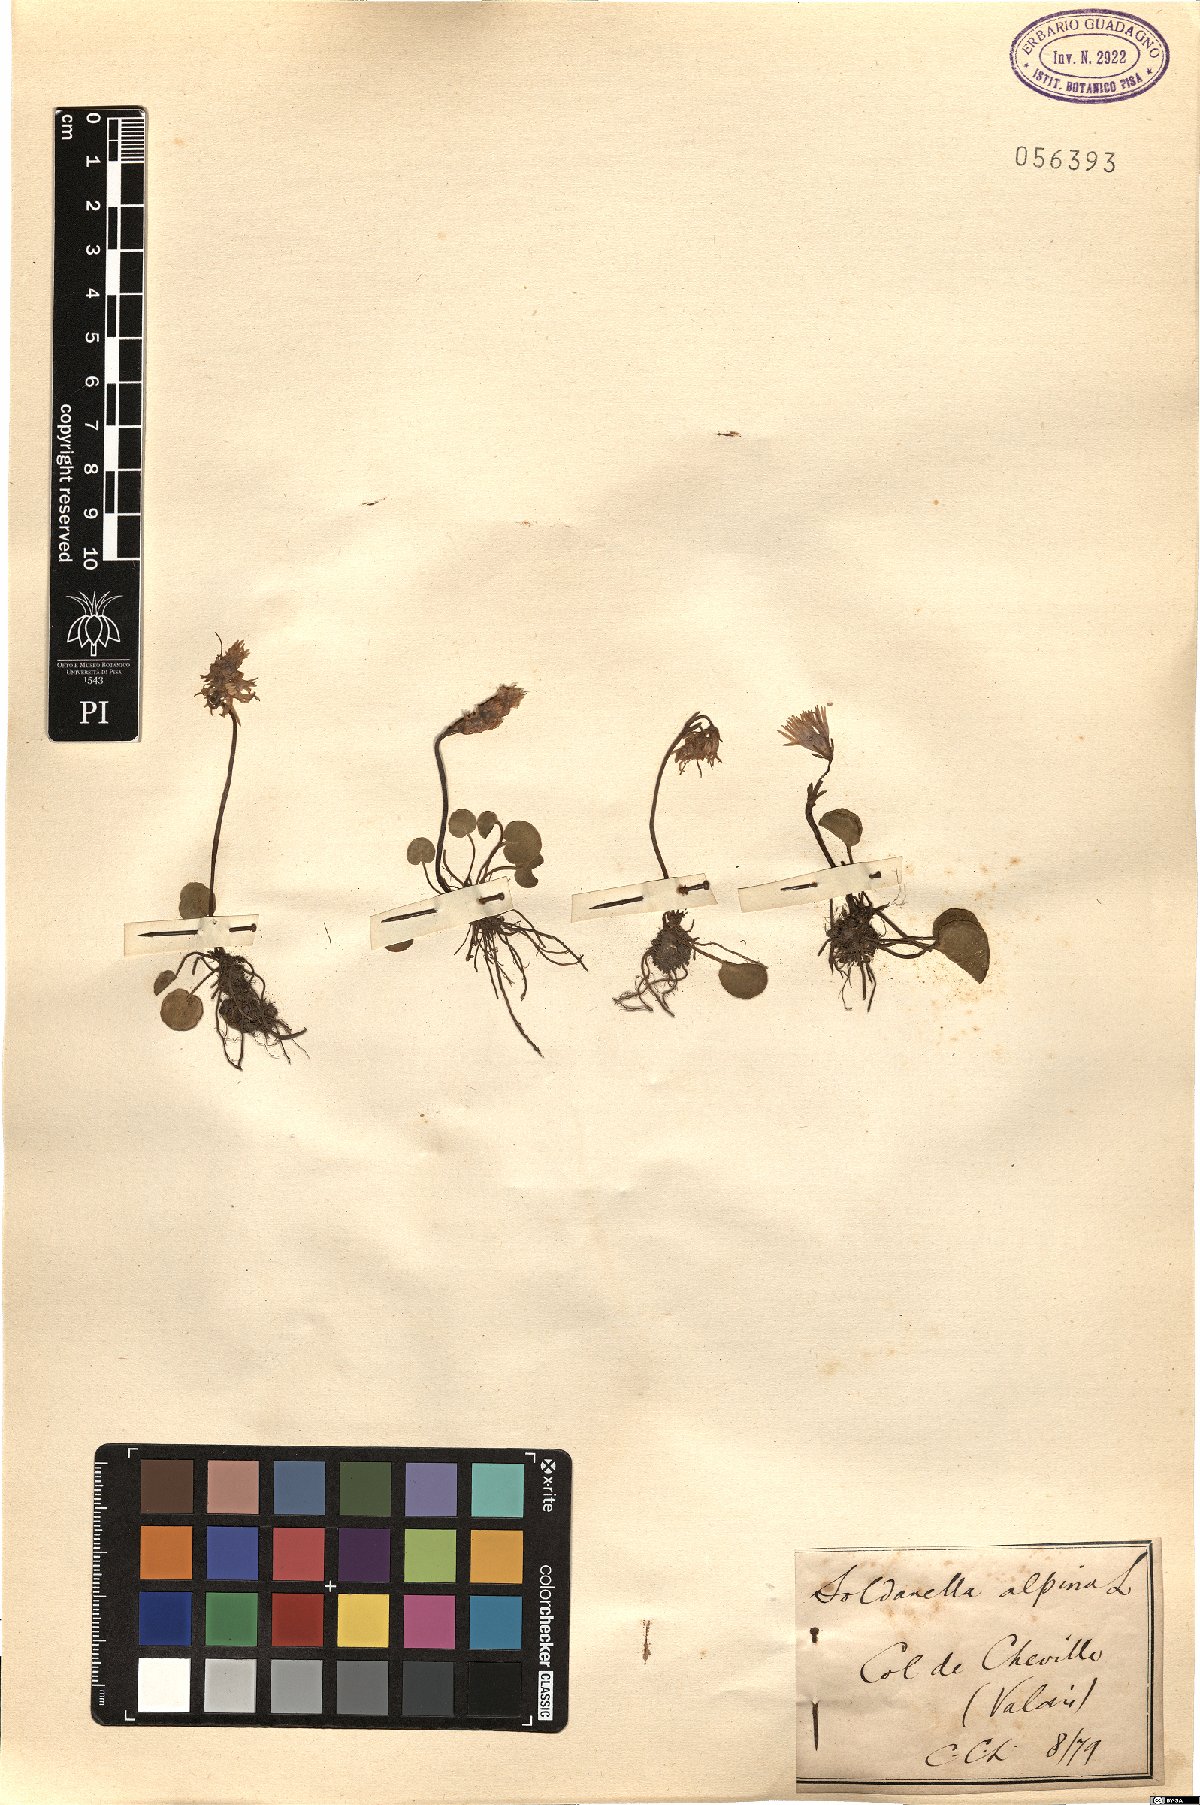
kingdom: Plantae
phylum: Tracheophyta
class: Magnoliopsida
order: Ericales
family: Primulaceae
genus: Soldanella
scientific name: Soldanella alpina
